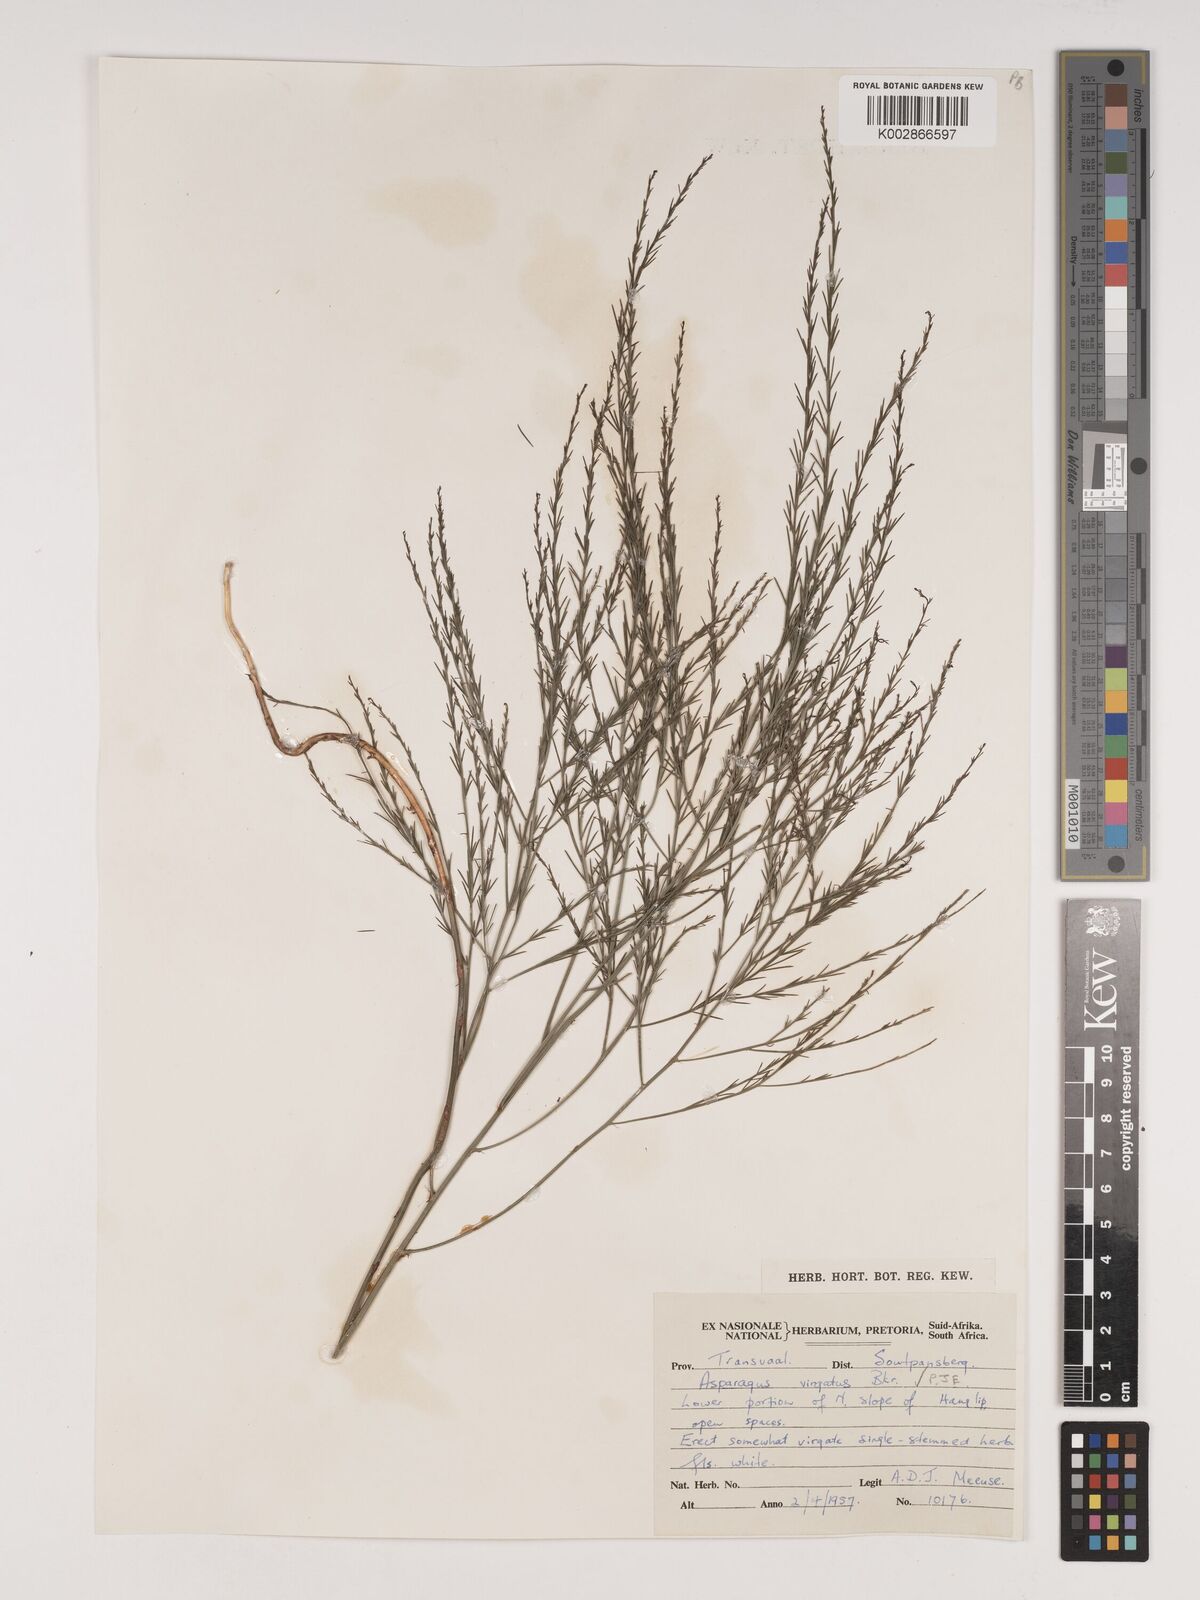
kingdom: Plantae
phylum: Tracheophyta
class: Liliopsida
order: Asparagales
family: Asparagaceae
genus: Asparagus
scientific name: Asparagus virgatus
